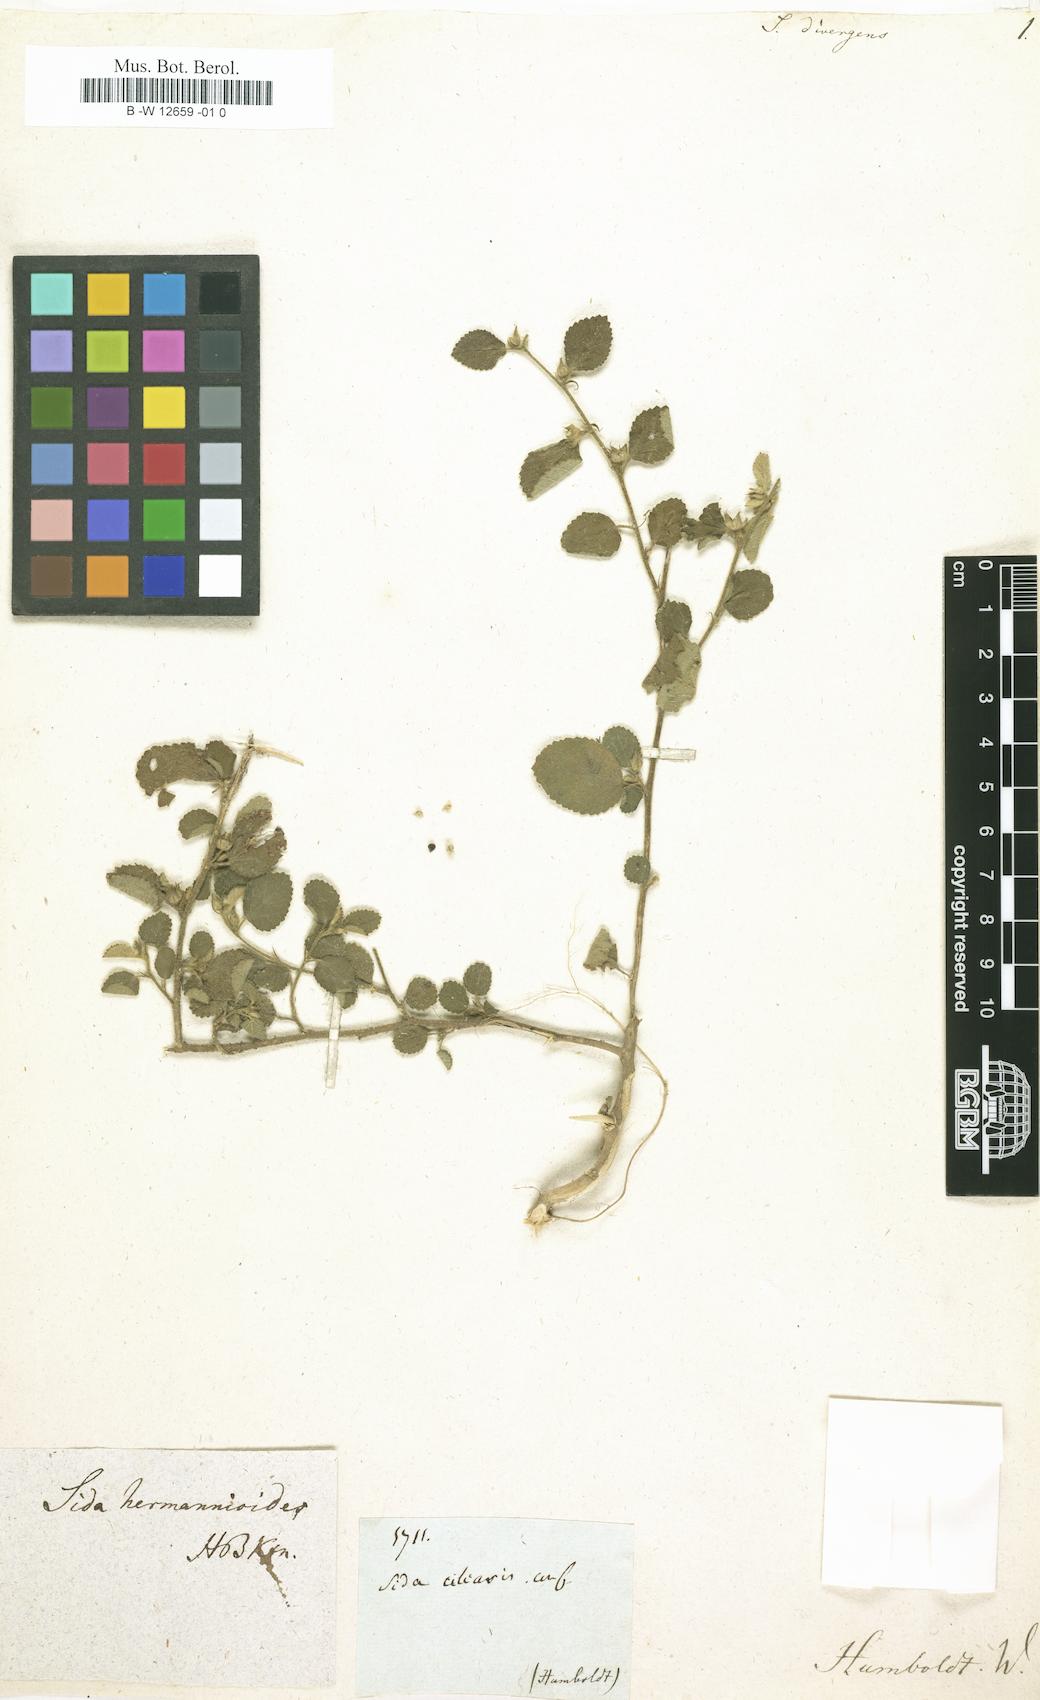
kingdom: Plantae
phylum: Tracheophyta
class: Magnoliopsida
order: Malvales
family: Malvaceae
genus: Wissadula
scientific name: Wissadula divergens
